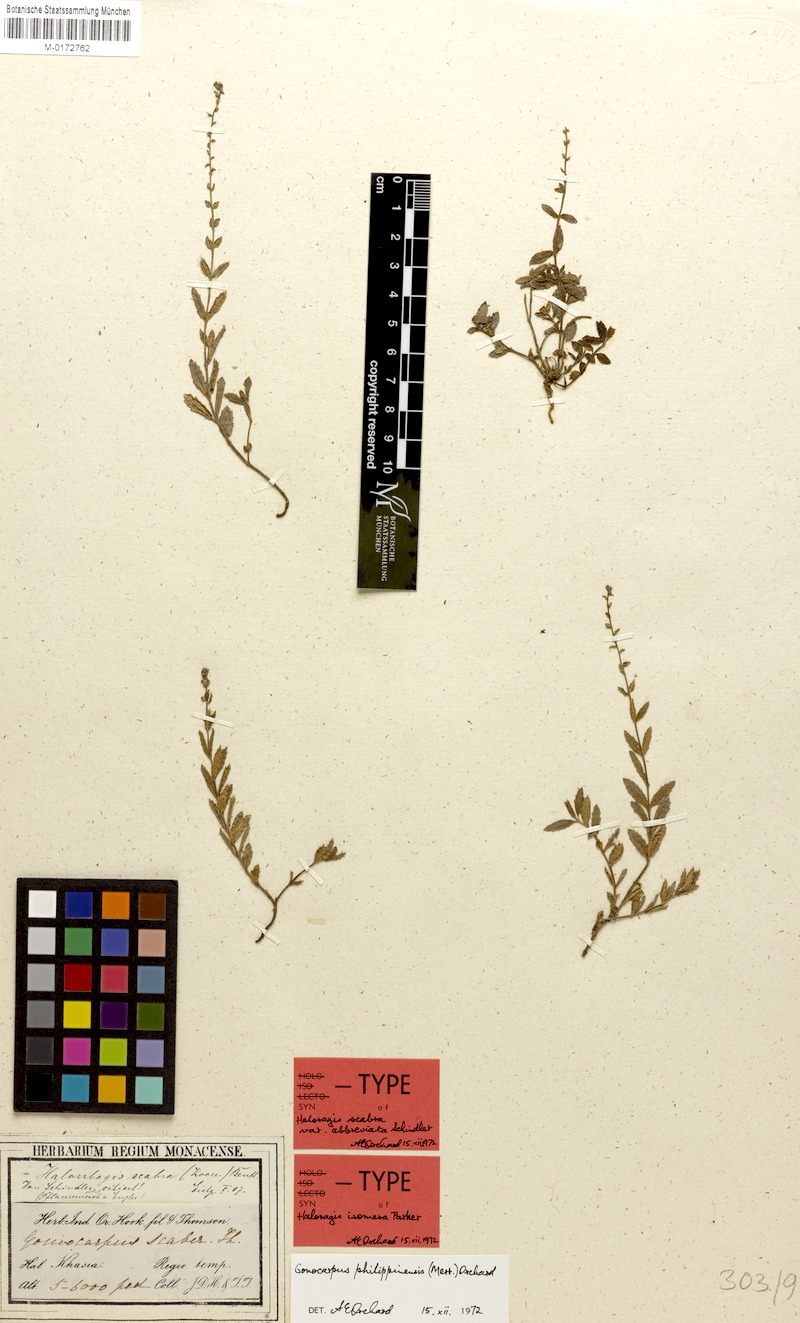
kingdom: Plantae
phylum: Tracheophyta
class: Magnoliopsida
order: Saxifragales
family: Haloragaceae
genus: Gonocarpus
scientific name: Gonocarpus chinensis
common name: Chinese raspwort
